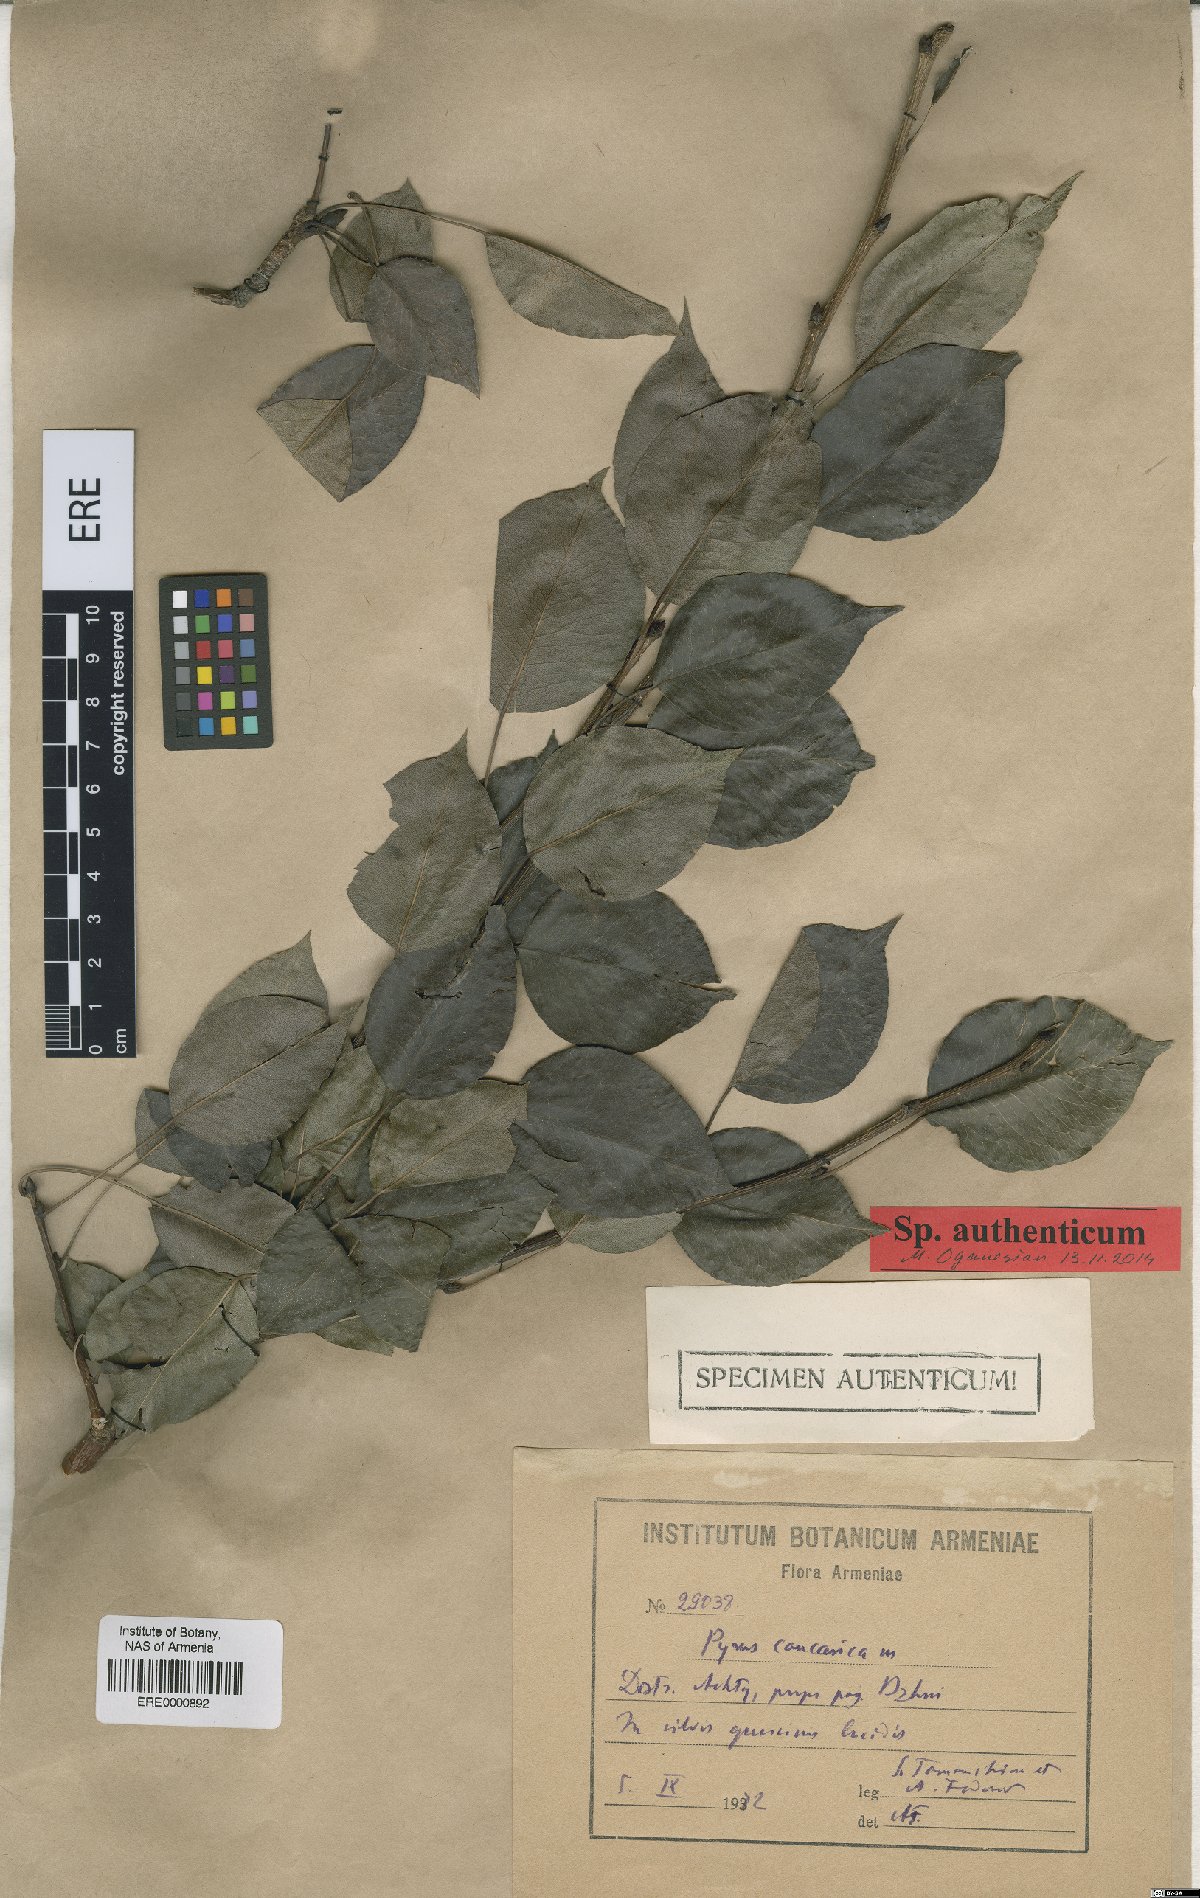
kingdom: Plantae
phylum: Tracheophyta
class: Magnoliopsida
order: Rosales
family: Rosaceae
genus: Pyrus
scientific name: Pyrus communis
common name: Pear
